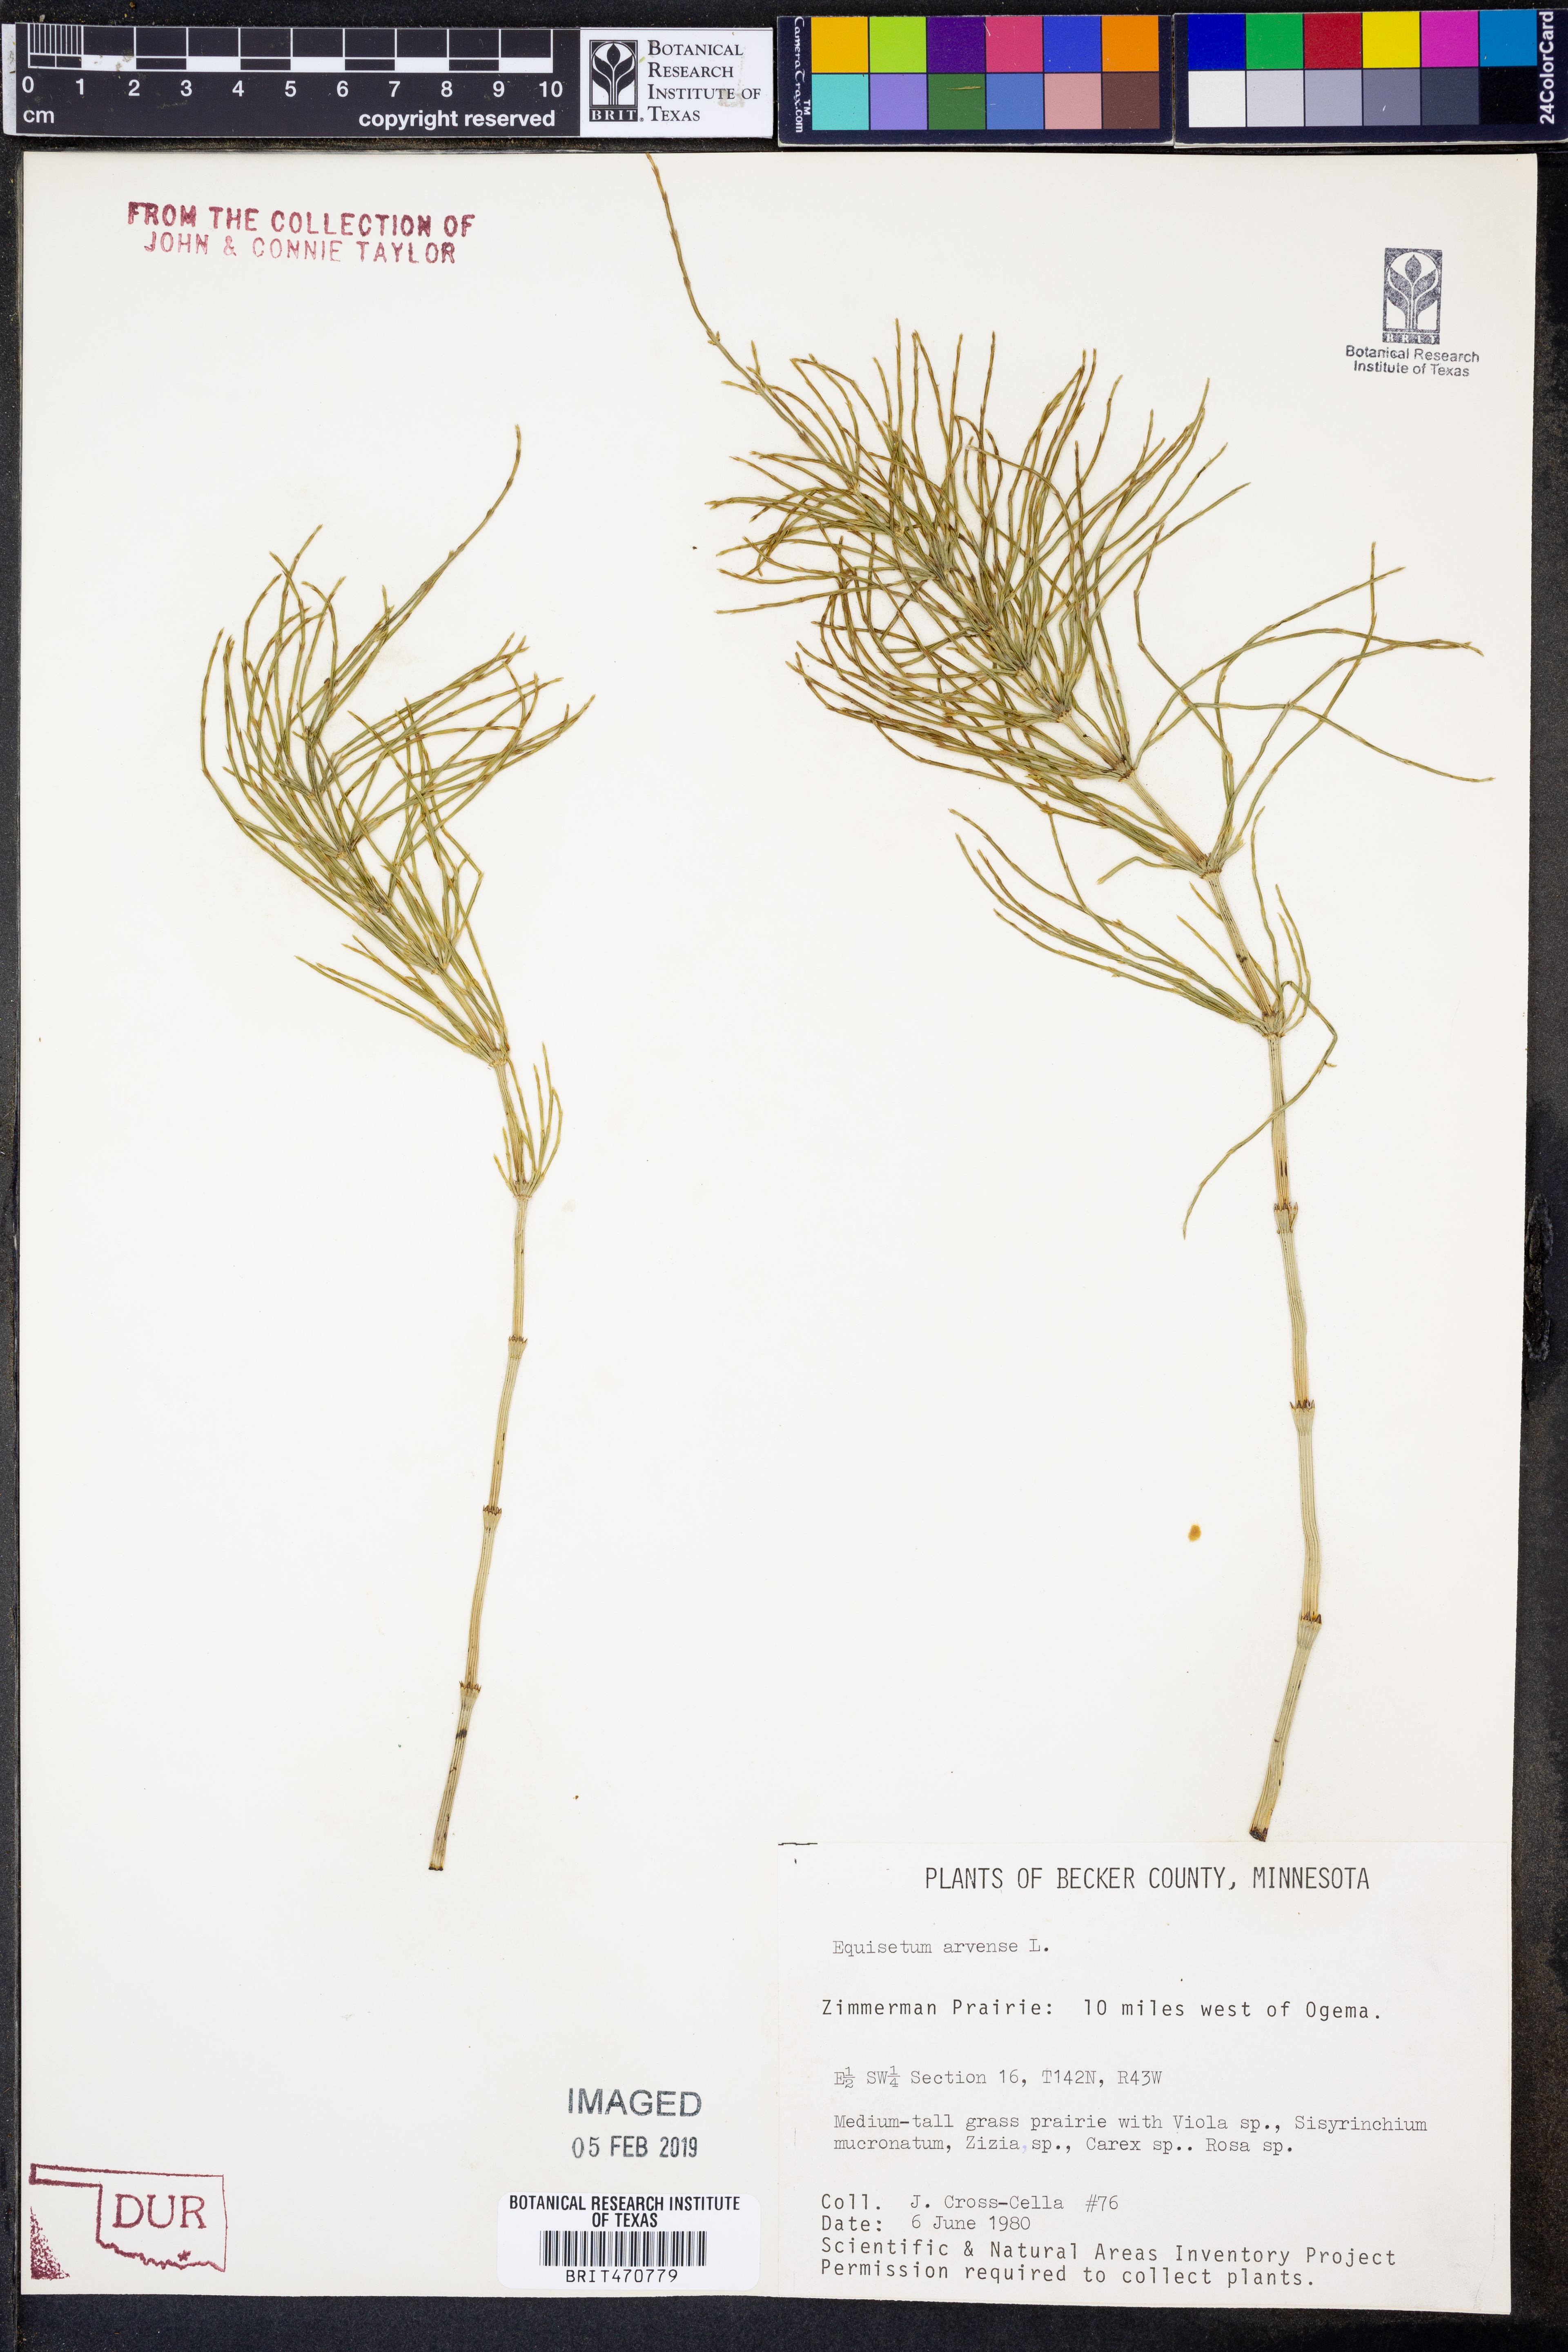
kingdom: Plantae
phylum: Tracheophyta
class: Polypodiopsida
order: Equisetales
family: Equisetaceae
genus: Equisetum
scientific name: Equisetum arvense
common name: Field horsetail
